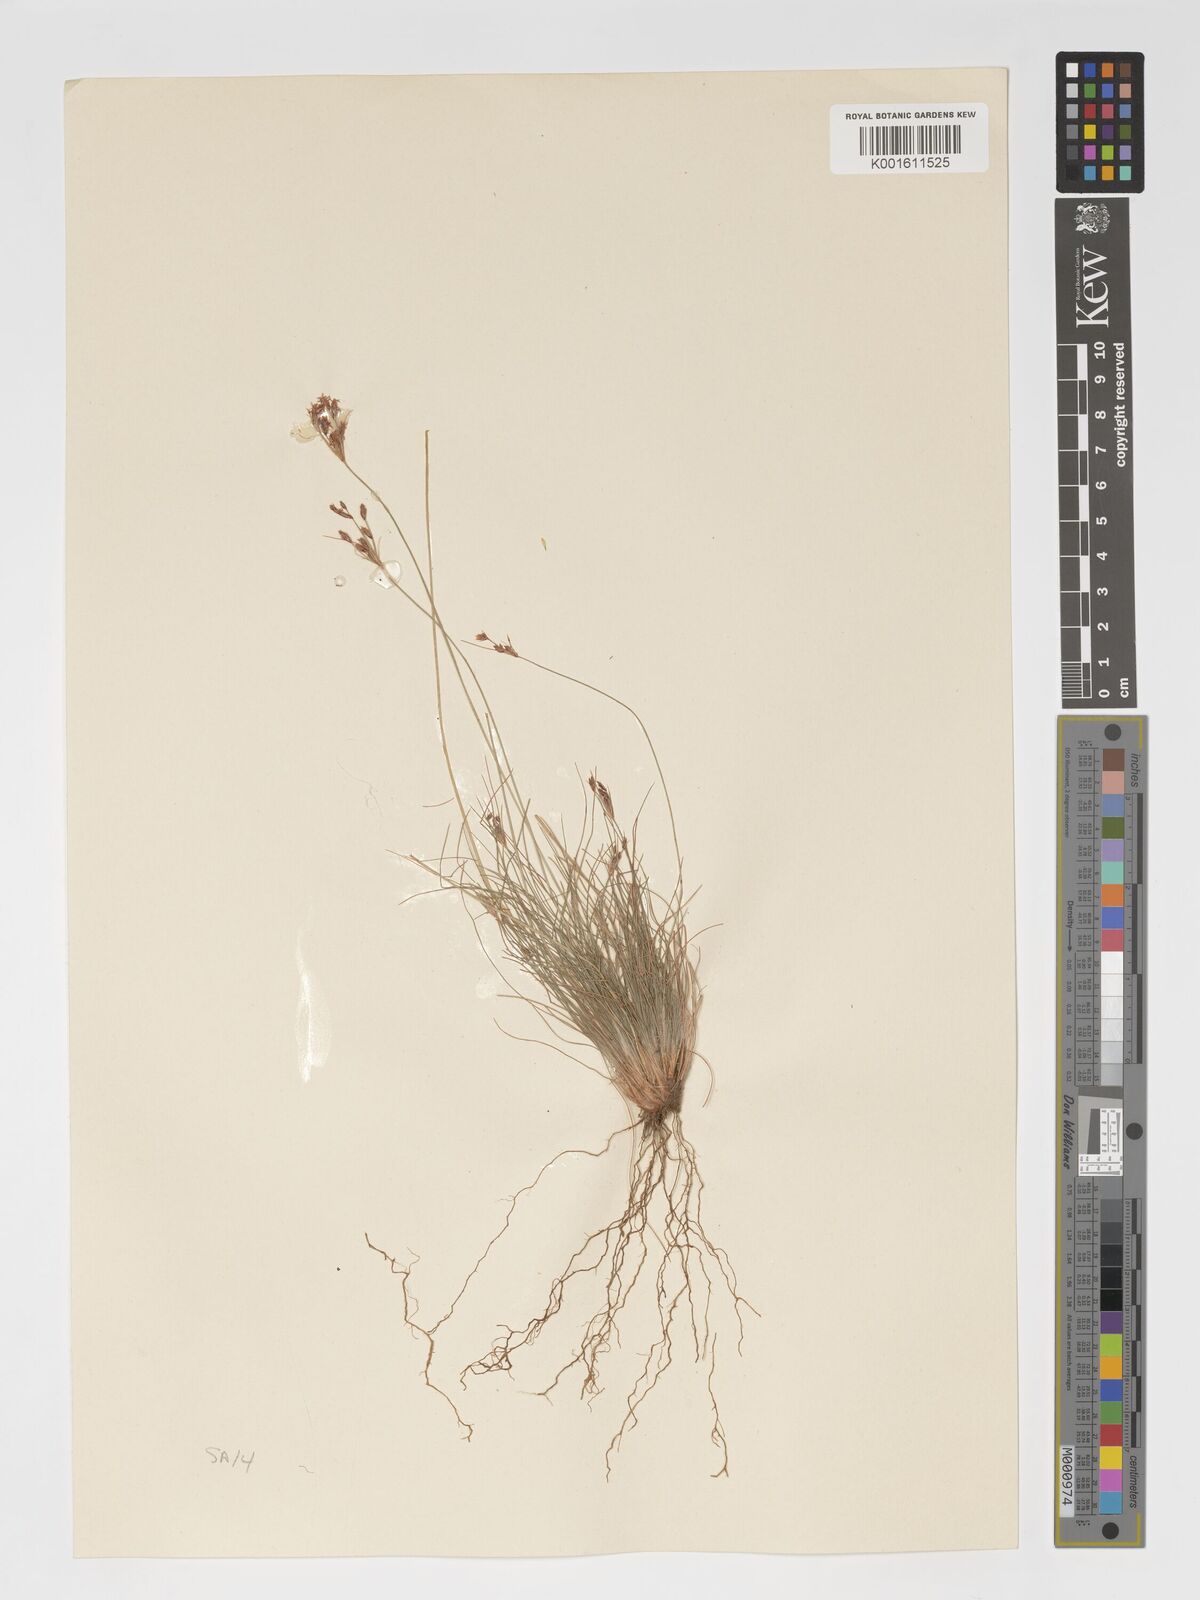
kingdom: Plantae
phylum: Tracheophyta
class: Liliopsida
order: Poales
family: Cyperaceae
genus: Bulbostylis
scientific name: Bulbostylis hispidula
